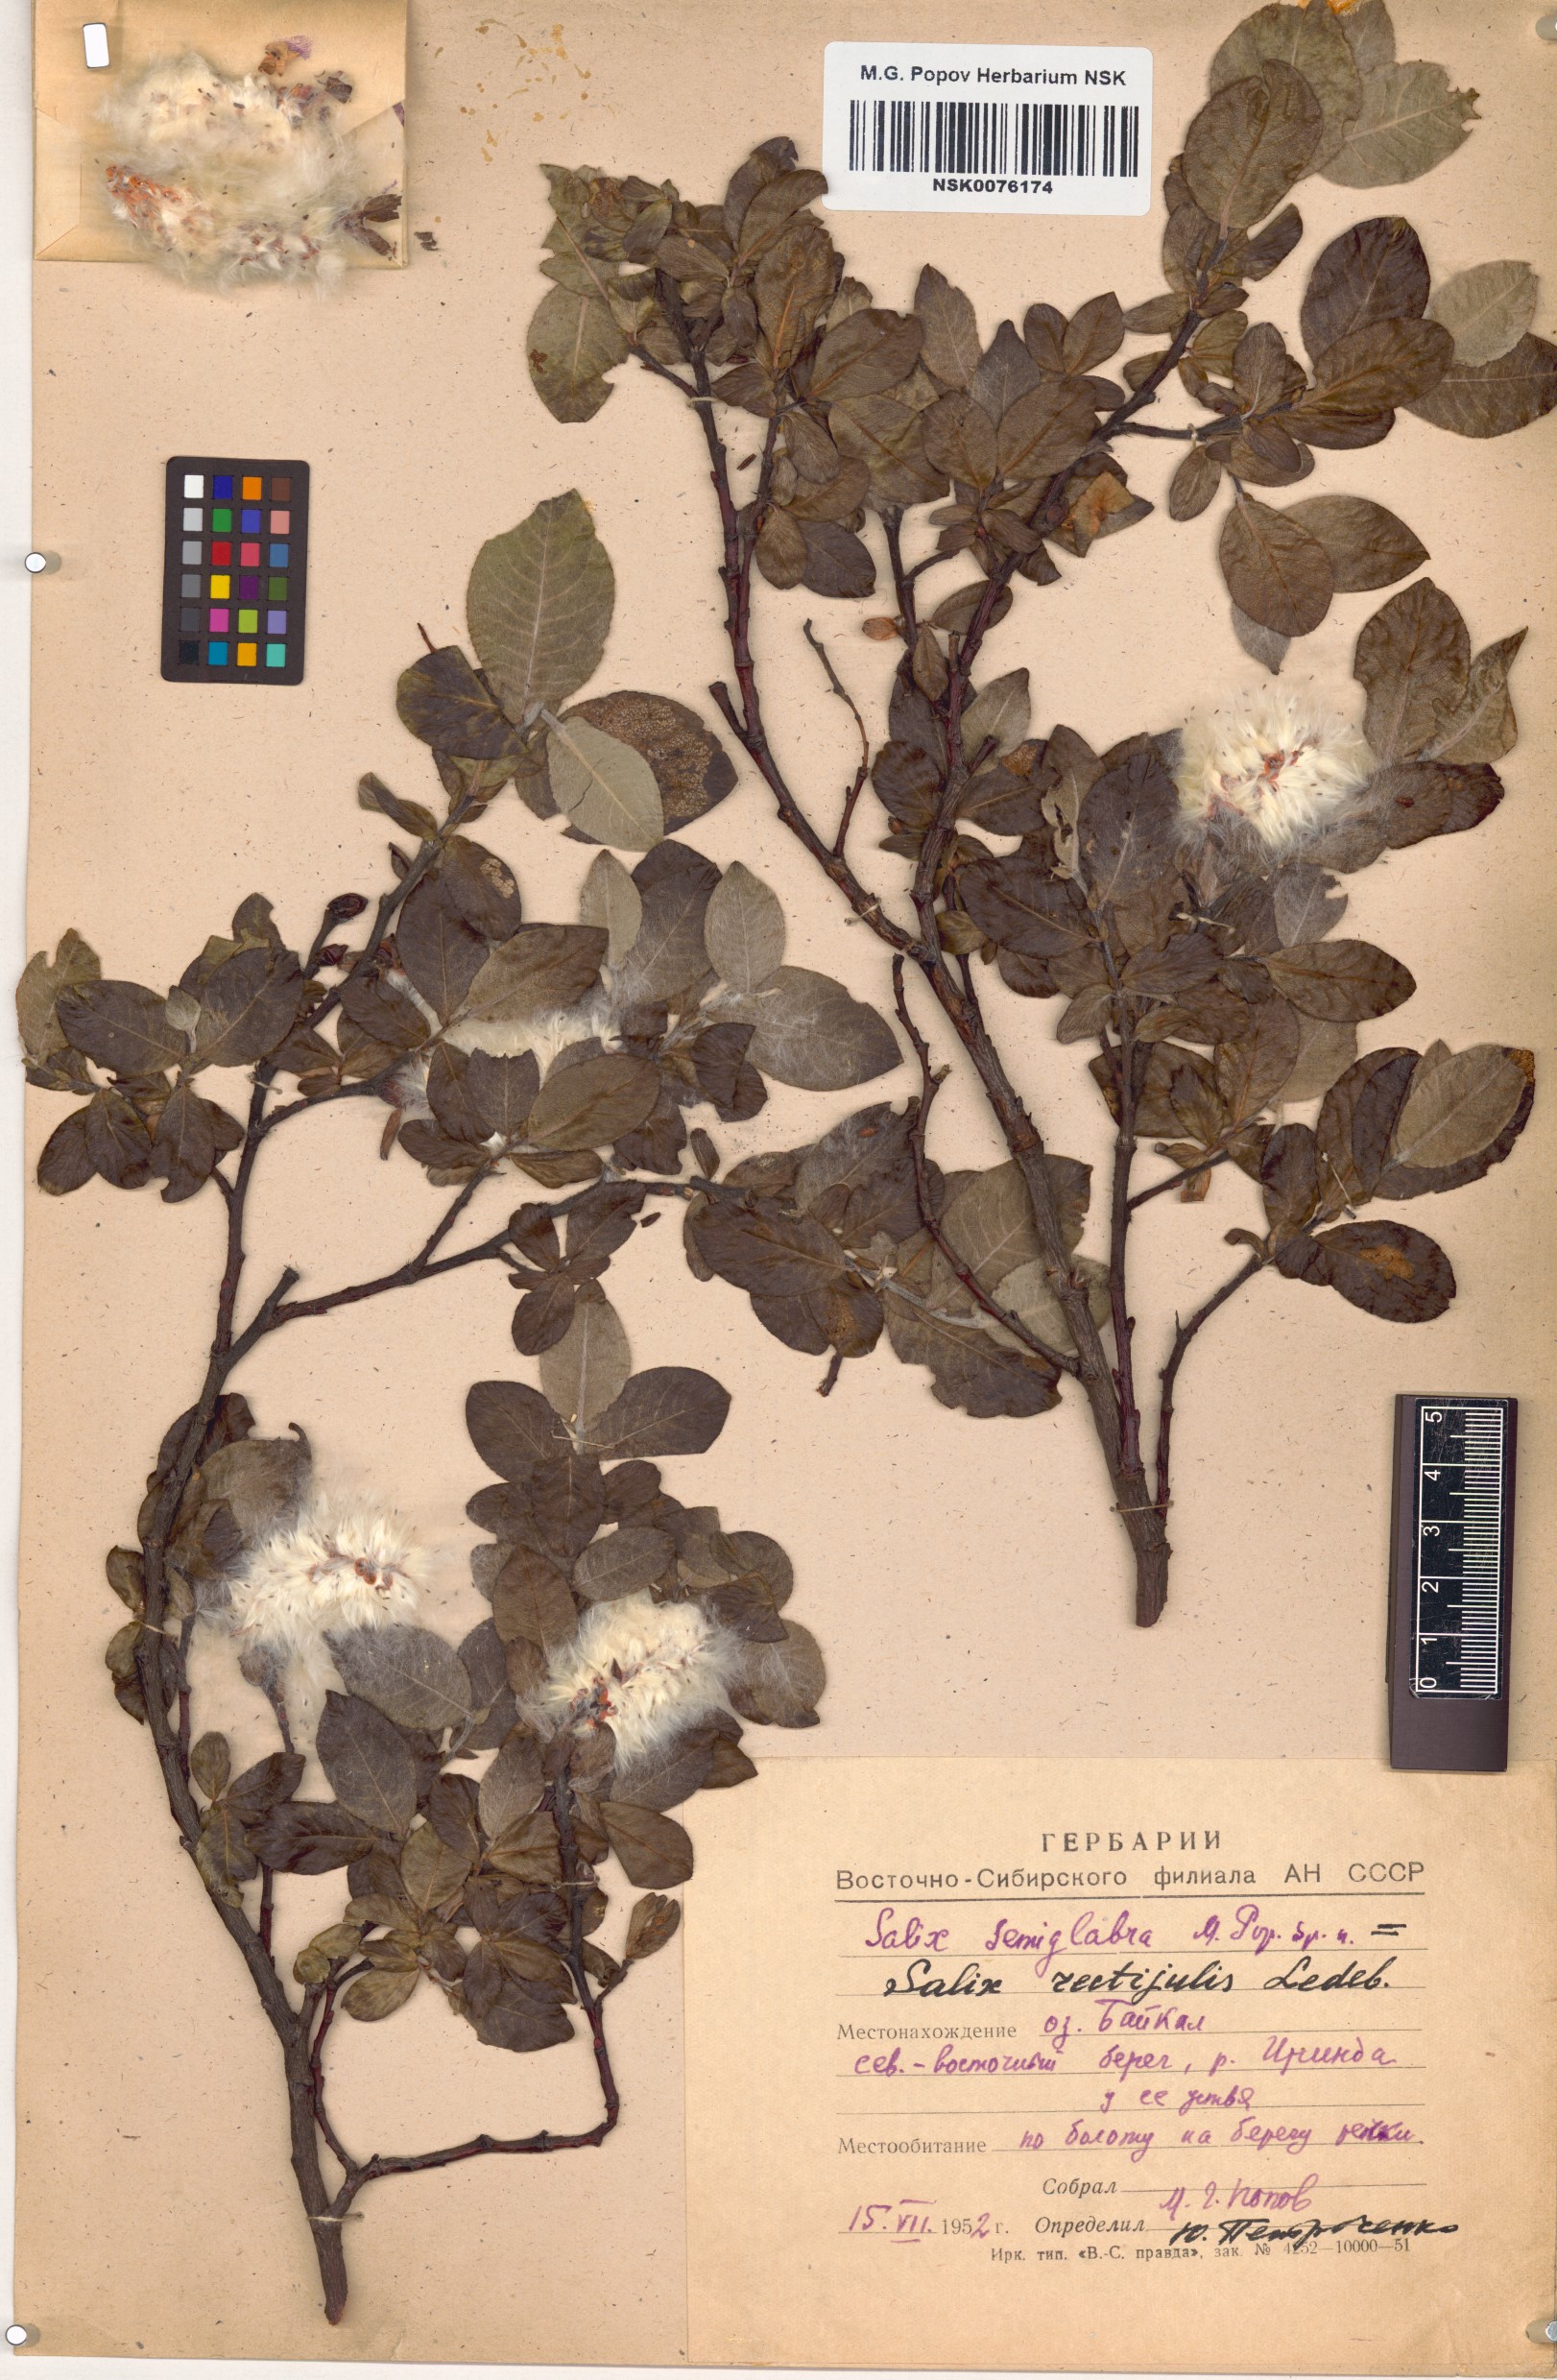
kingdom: Plantae
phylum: Tracheophyta
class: Magnoliopsida
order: Malpighiales
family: Salicaceae
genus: Salix
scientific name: Salix rectijulis
